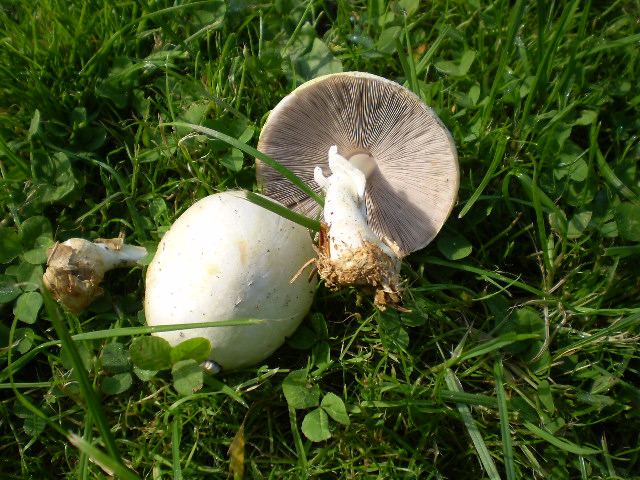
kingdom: Fungi
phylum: Basidiomycota
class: Agaricomycetes
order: Agaricales
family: Agaricaceae
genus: Agaricus
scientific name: Agaricus sylvicola
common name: skiveknoldet champignon
